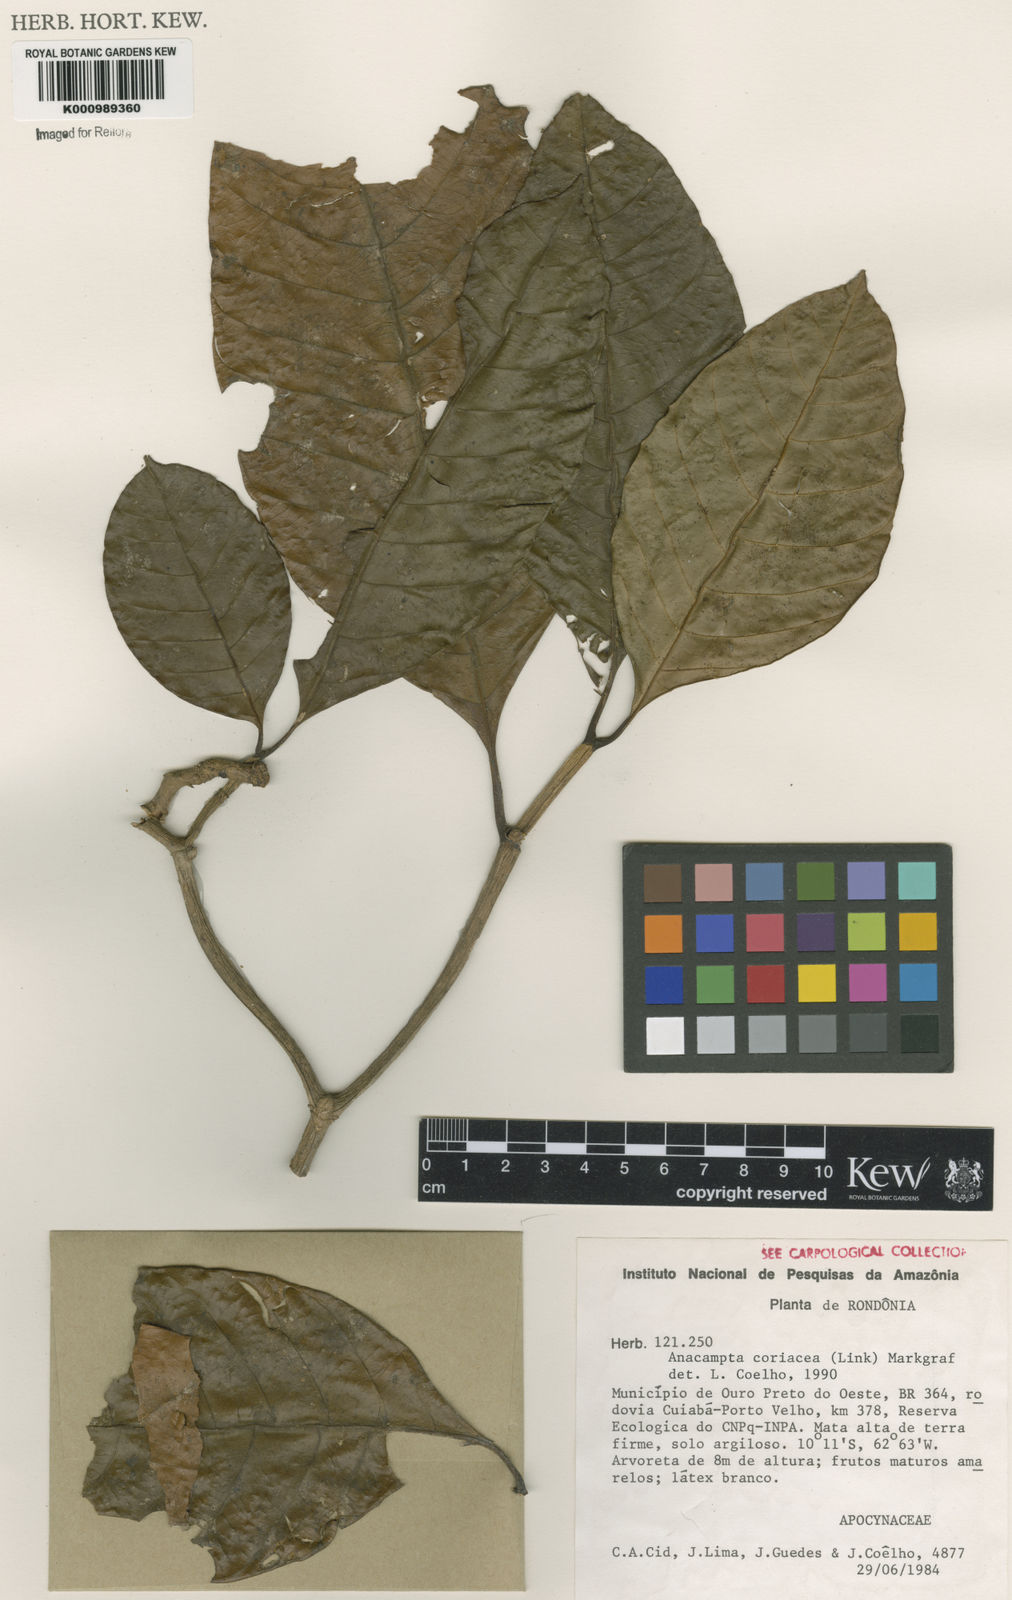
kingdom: Plantae
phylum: Tracheophyta
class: Magnoliopsida
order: Gentianales
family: Apocynaceae
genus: Tabernaemontana
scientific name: Tabernaemontana coriacea
